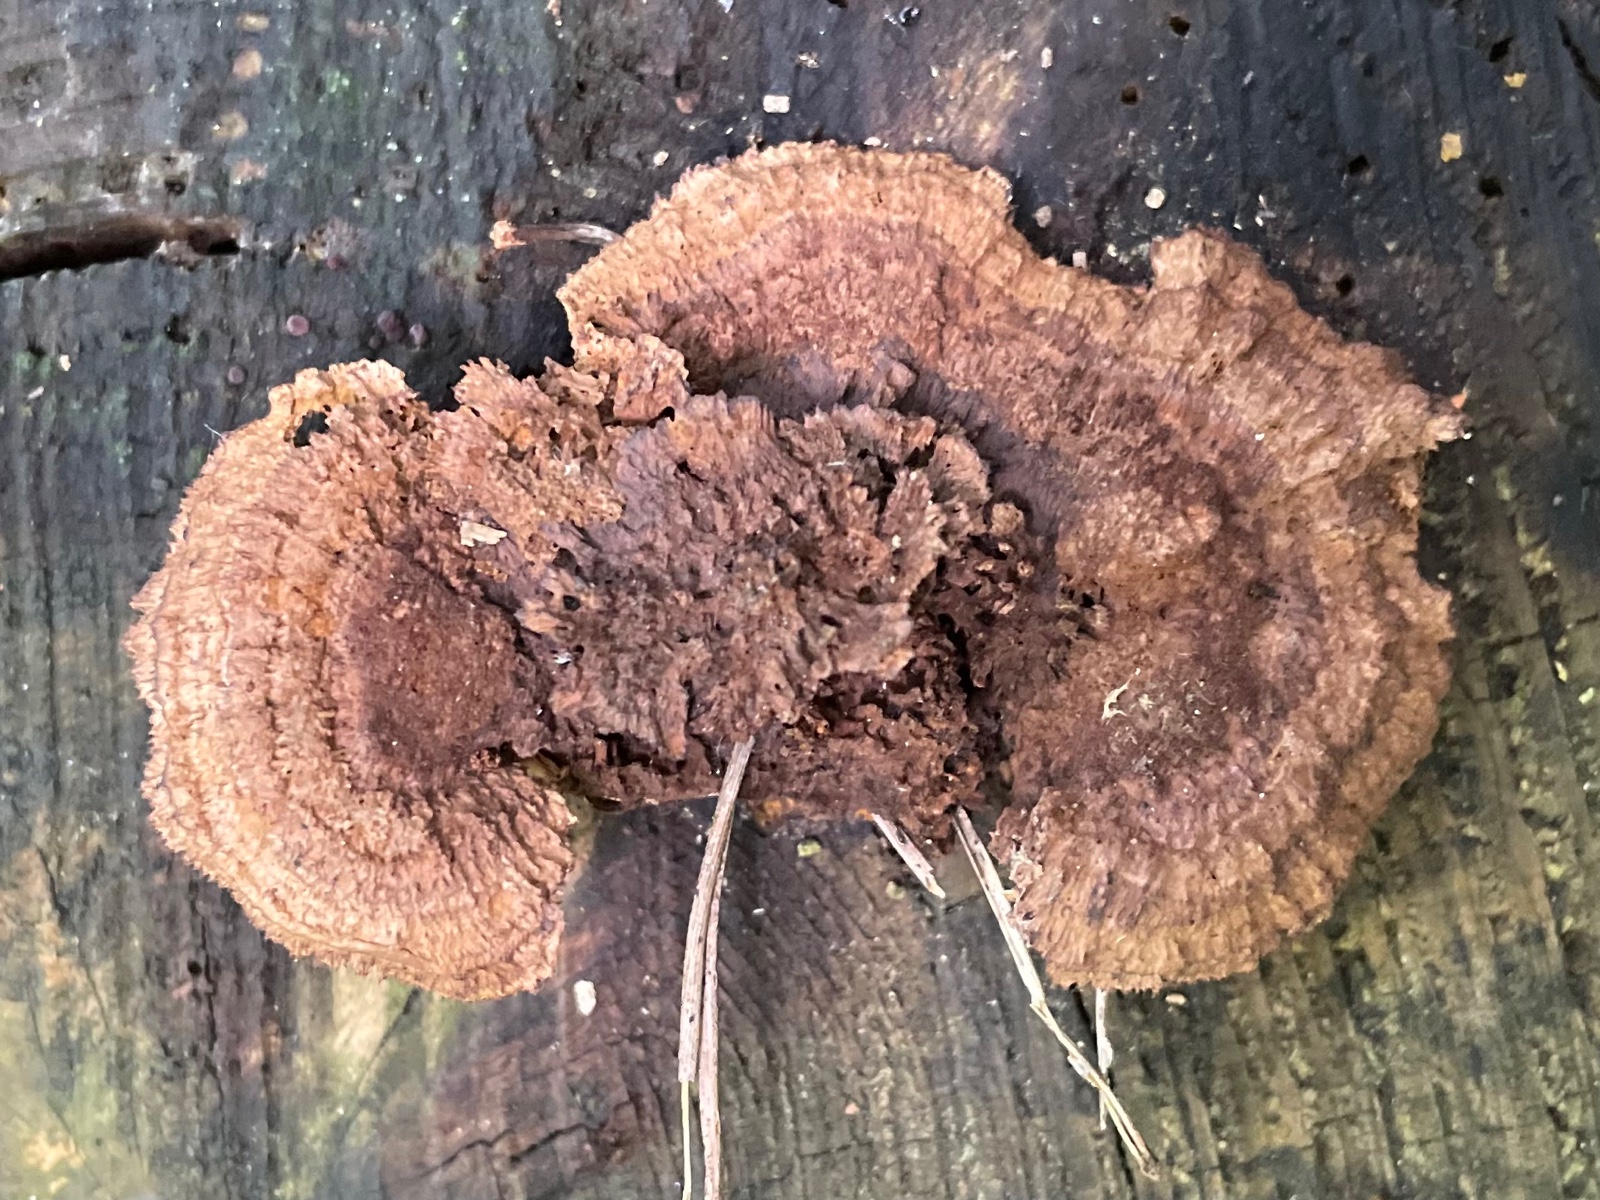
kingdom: Fungi
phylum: Basidiomycota
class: Agaricomycetes
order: Gloeophyllales
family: Gloeophyllaceae
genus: Gloeophyllum
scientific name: Gloeophyllum sepiarium
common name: fyrre-korkhat
